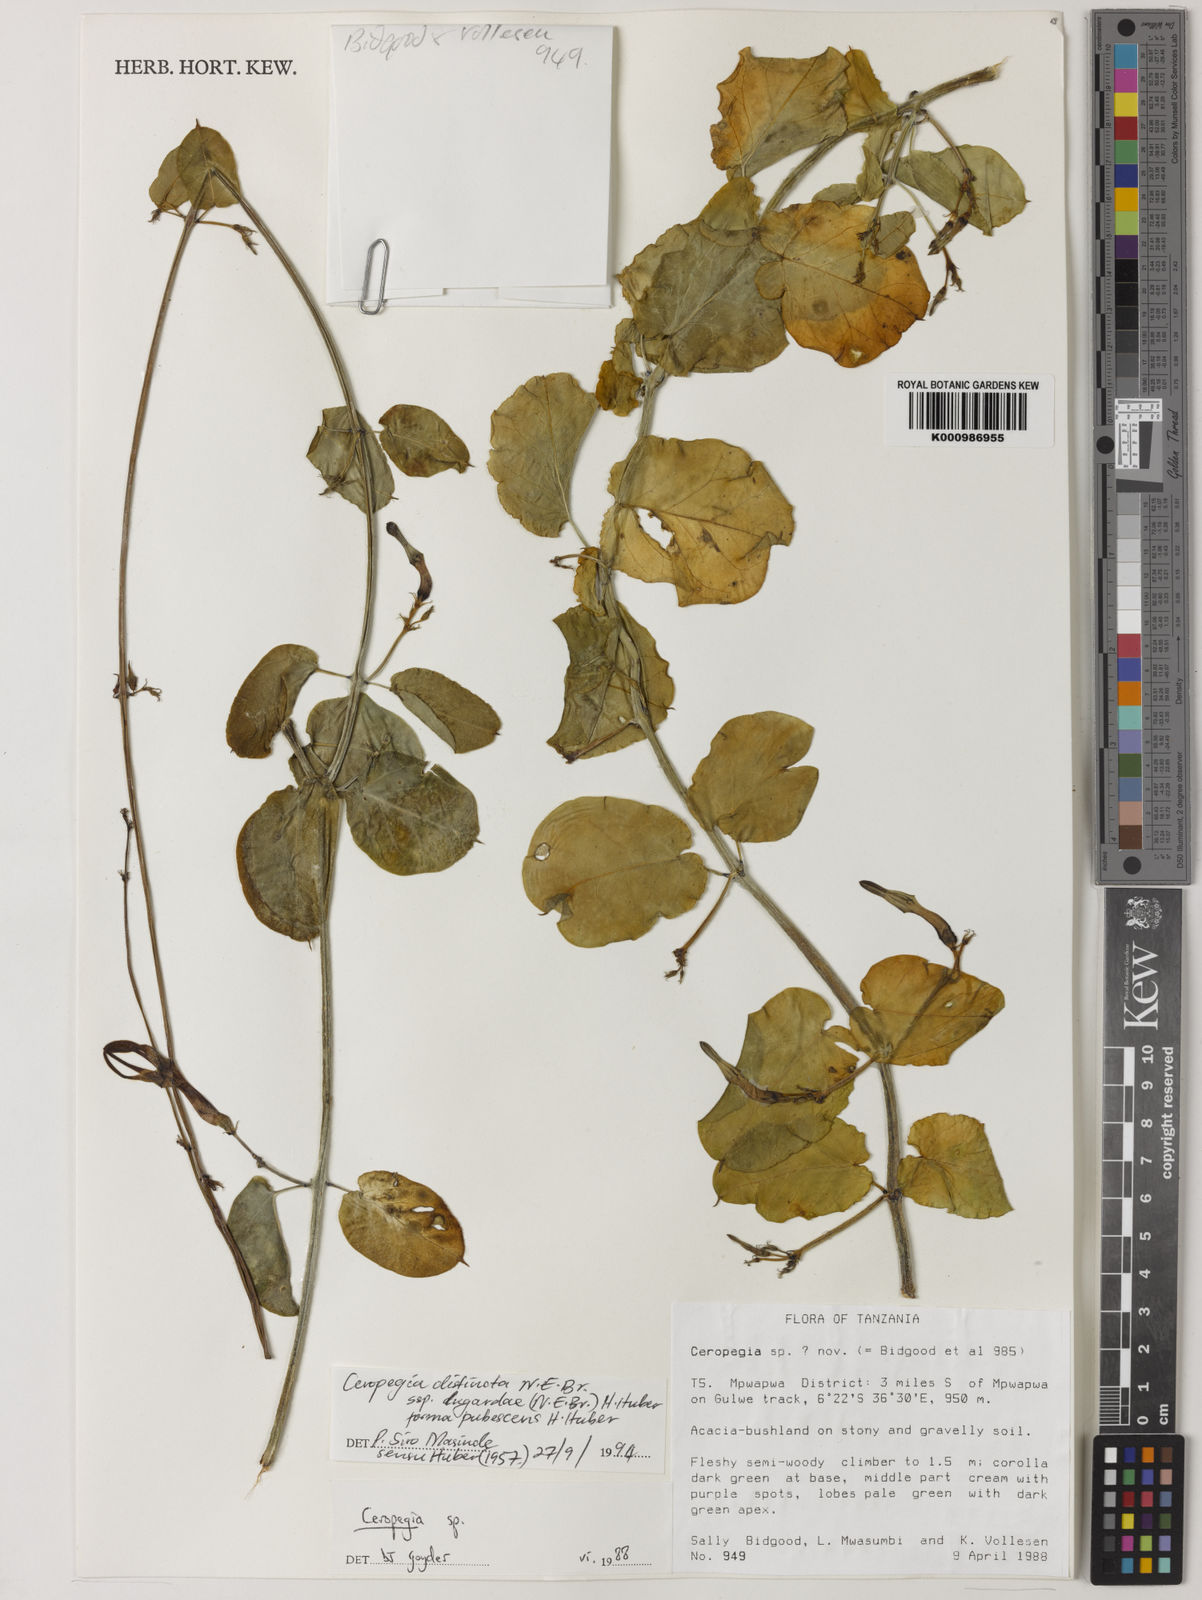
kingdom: Plantae
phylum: Tracheophyta
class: Magnoliopsida
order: Gentianales
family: Apocynaceae
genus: Ceropegia
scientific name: Ceropegia
